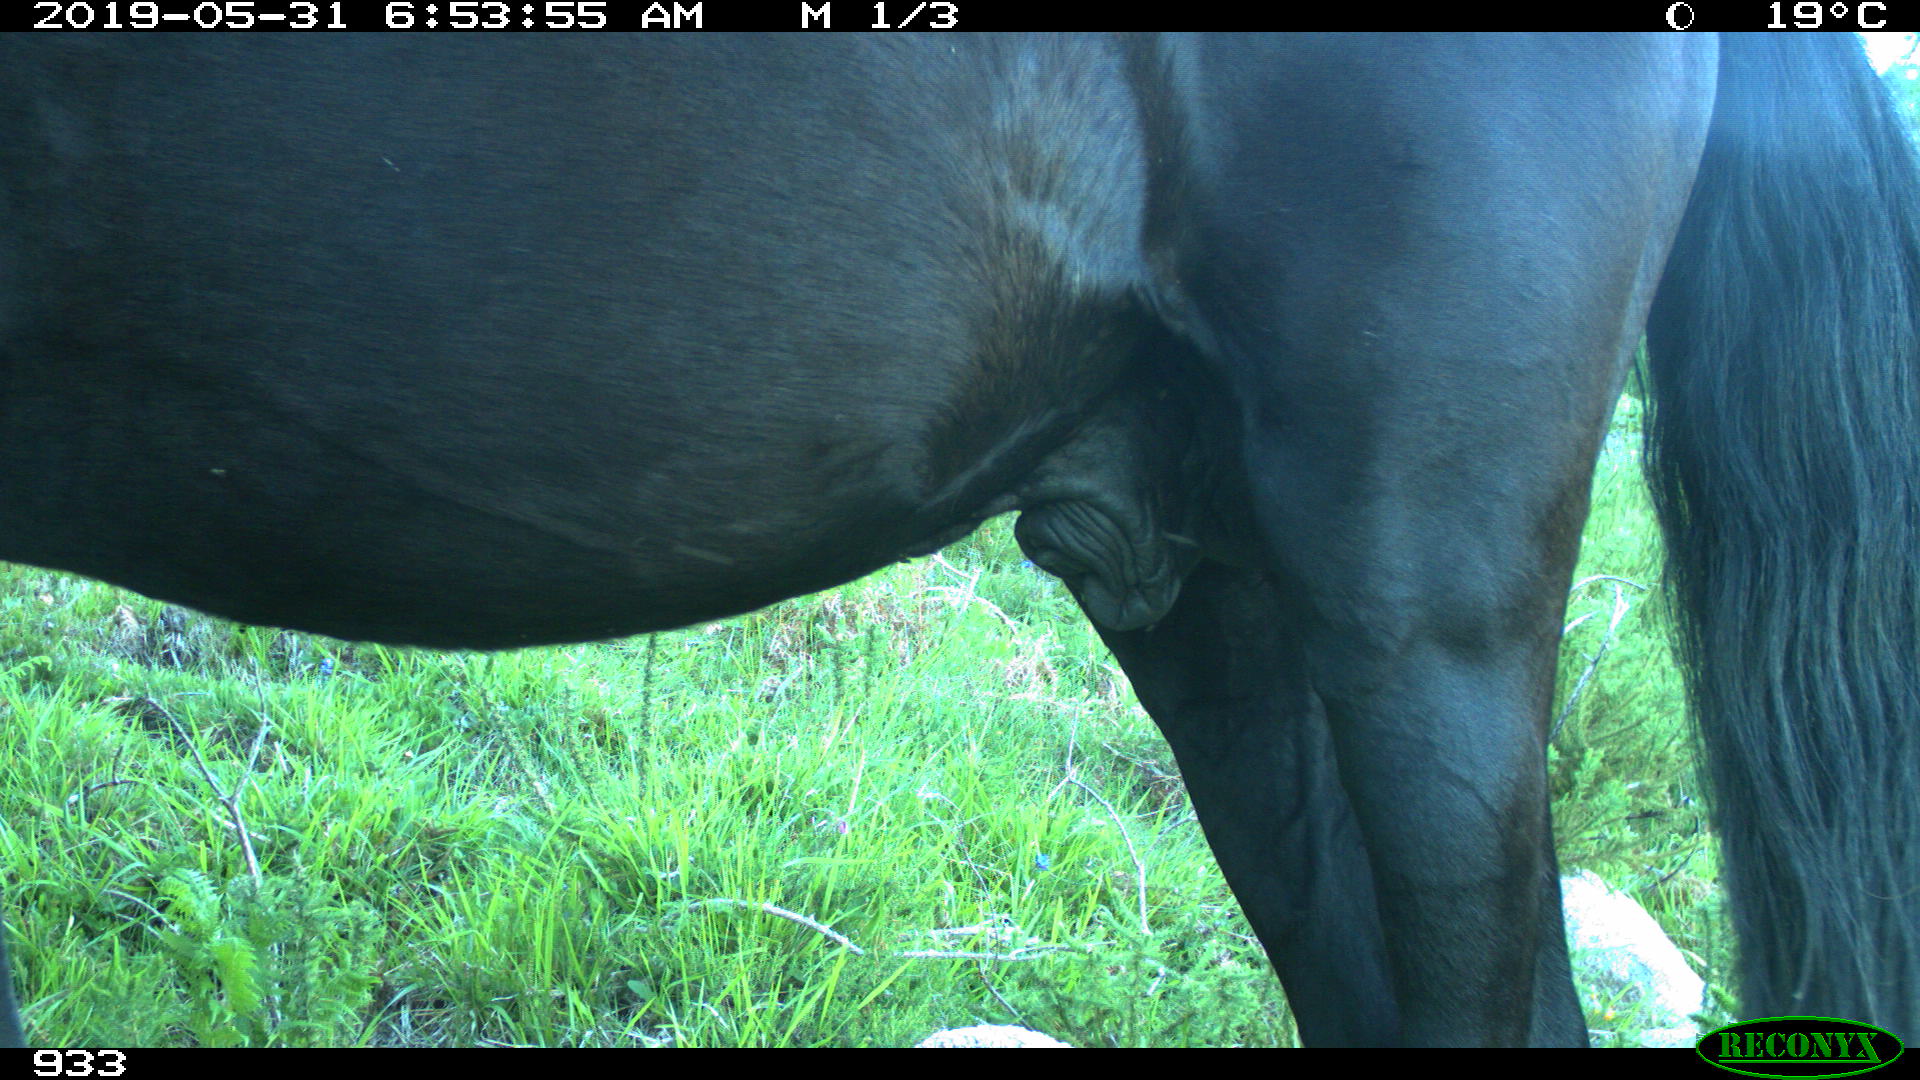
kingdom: Animalia
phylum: Chordata
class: Mammalia
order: Perissodactyla
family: Equidae
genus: Equus
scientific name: Equus caballus
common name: Horse
